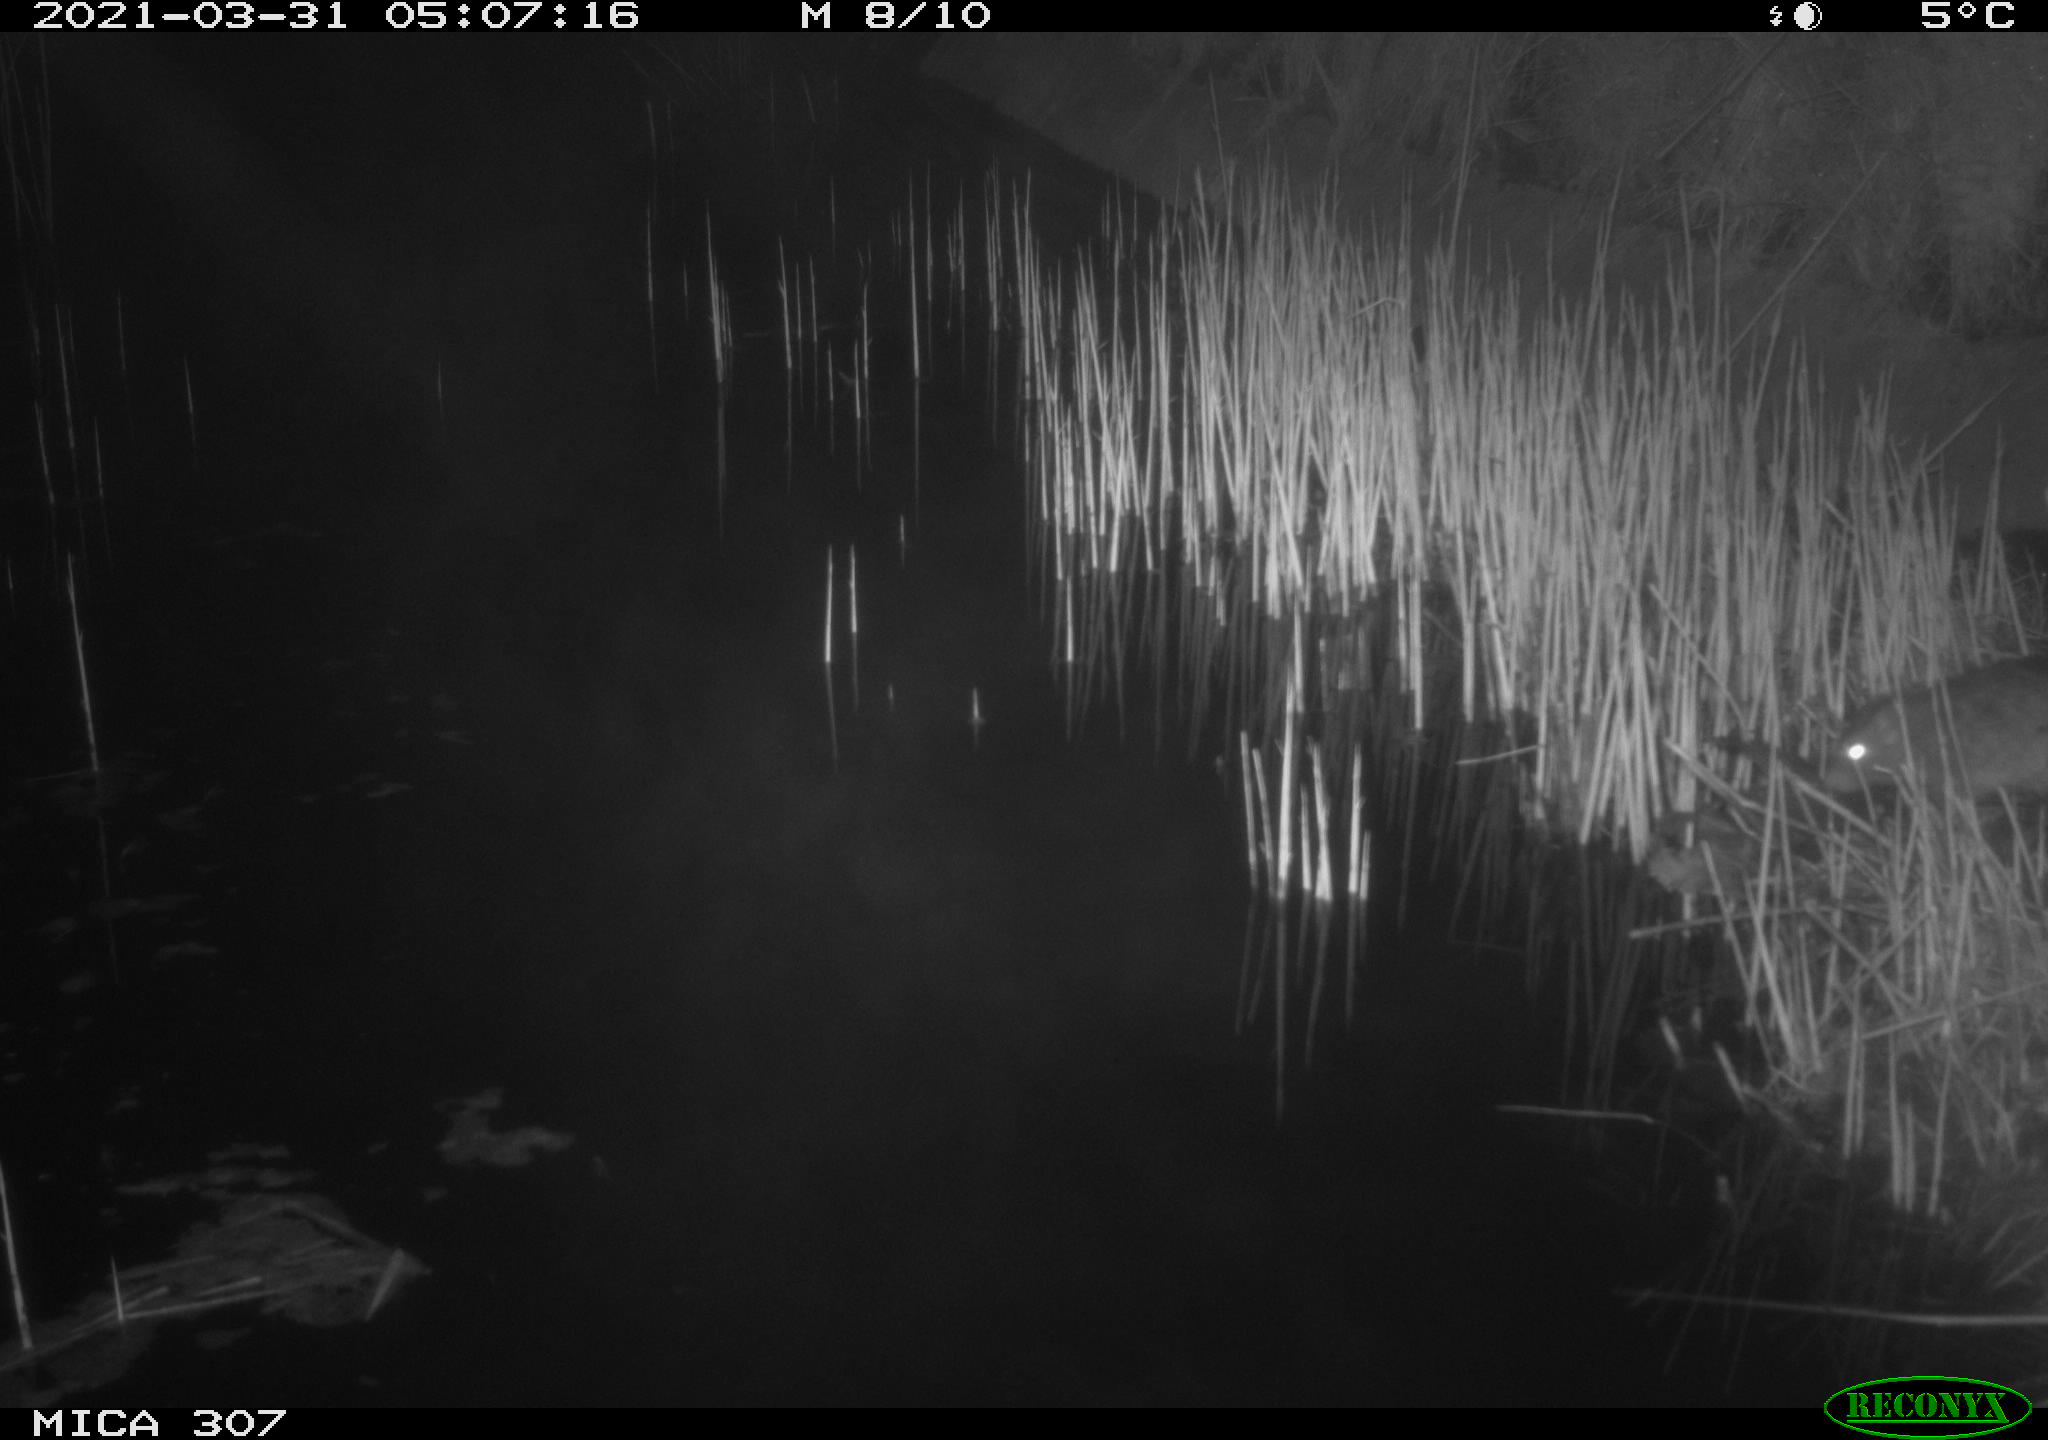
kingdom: Animalia
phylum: Chordata
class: Mammalia
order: Rodentia
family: Muridae
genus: Rattus
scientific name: Rattus norvegicus
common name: Brown rat
